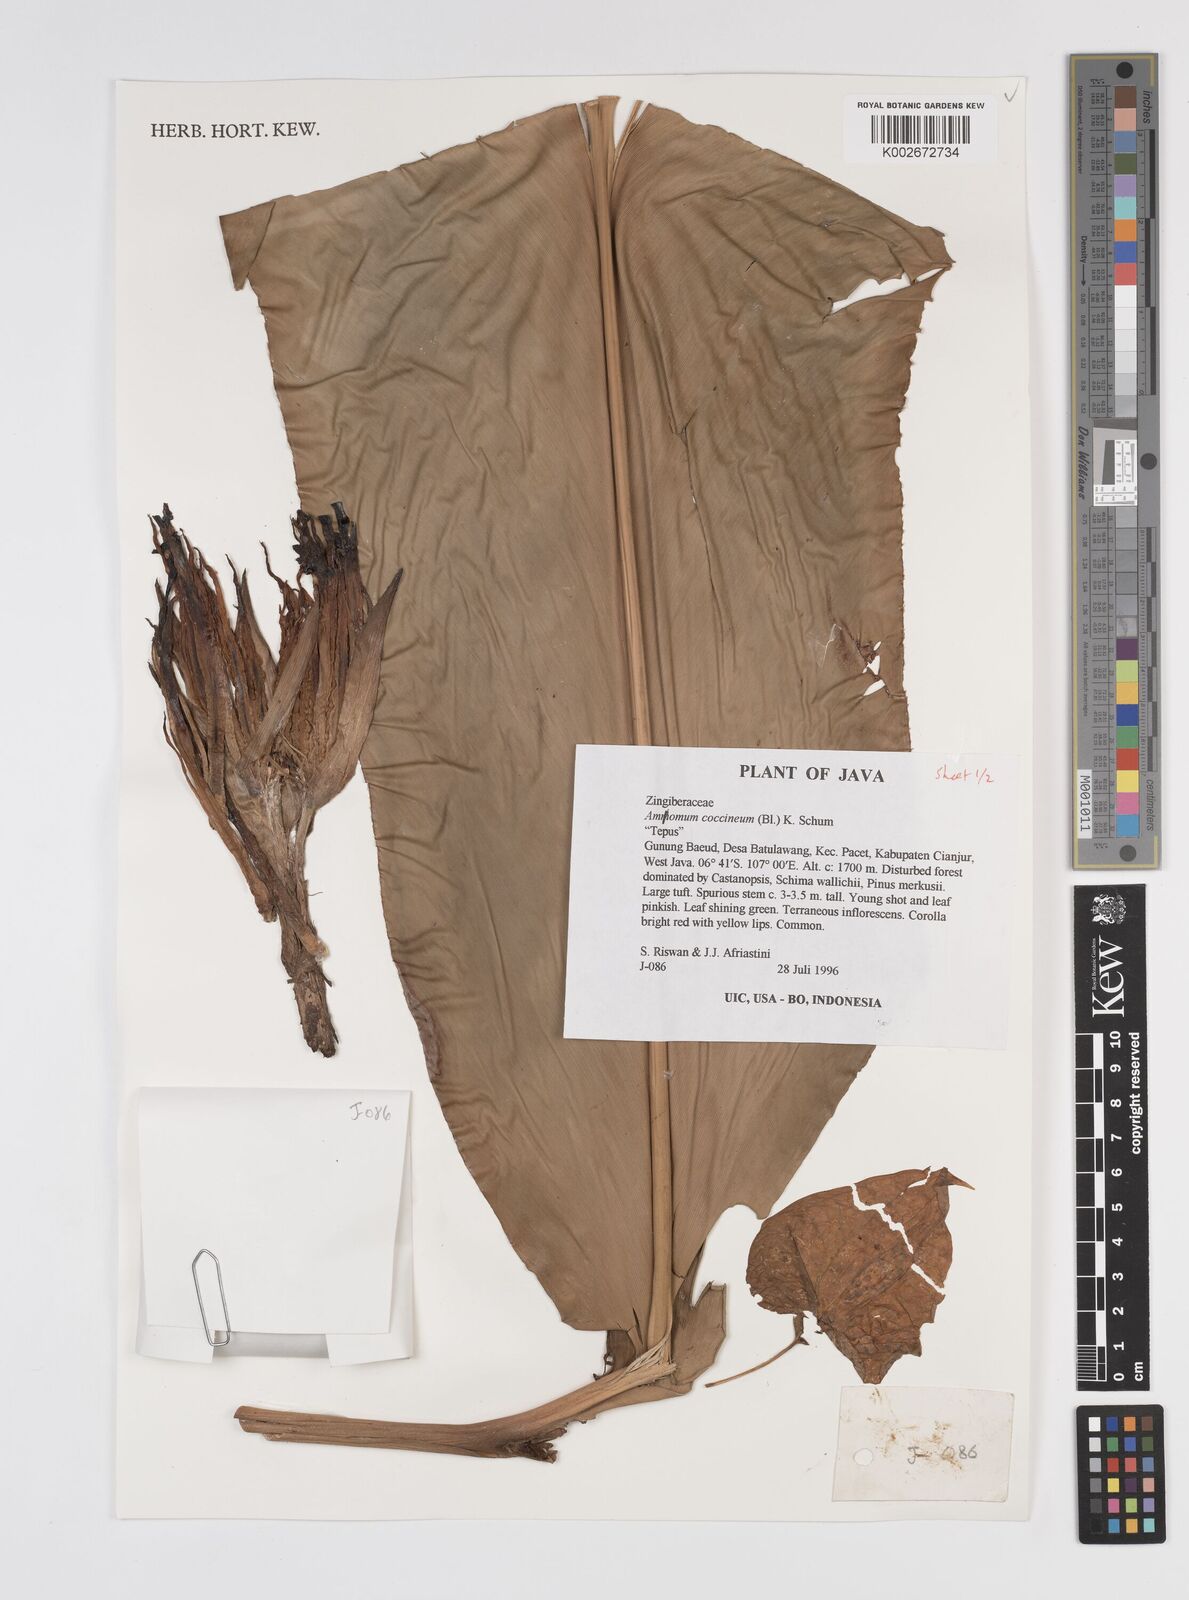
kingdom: Plantae
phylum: Tracheophyta
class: Liliopsida
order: Zingiberales
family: Zingiberaceae
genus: Etlingera
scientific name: Etlingera coccinea
